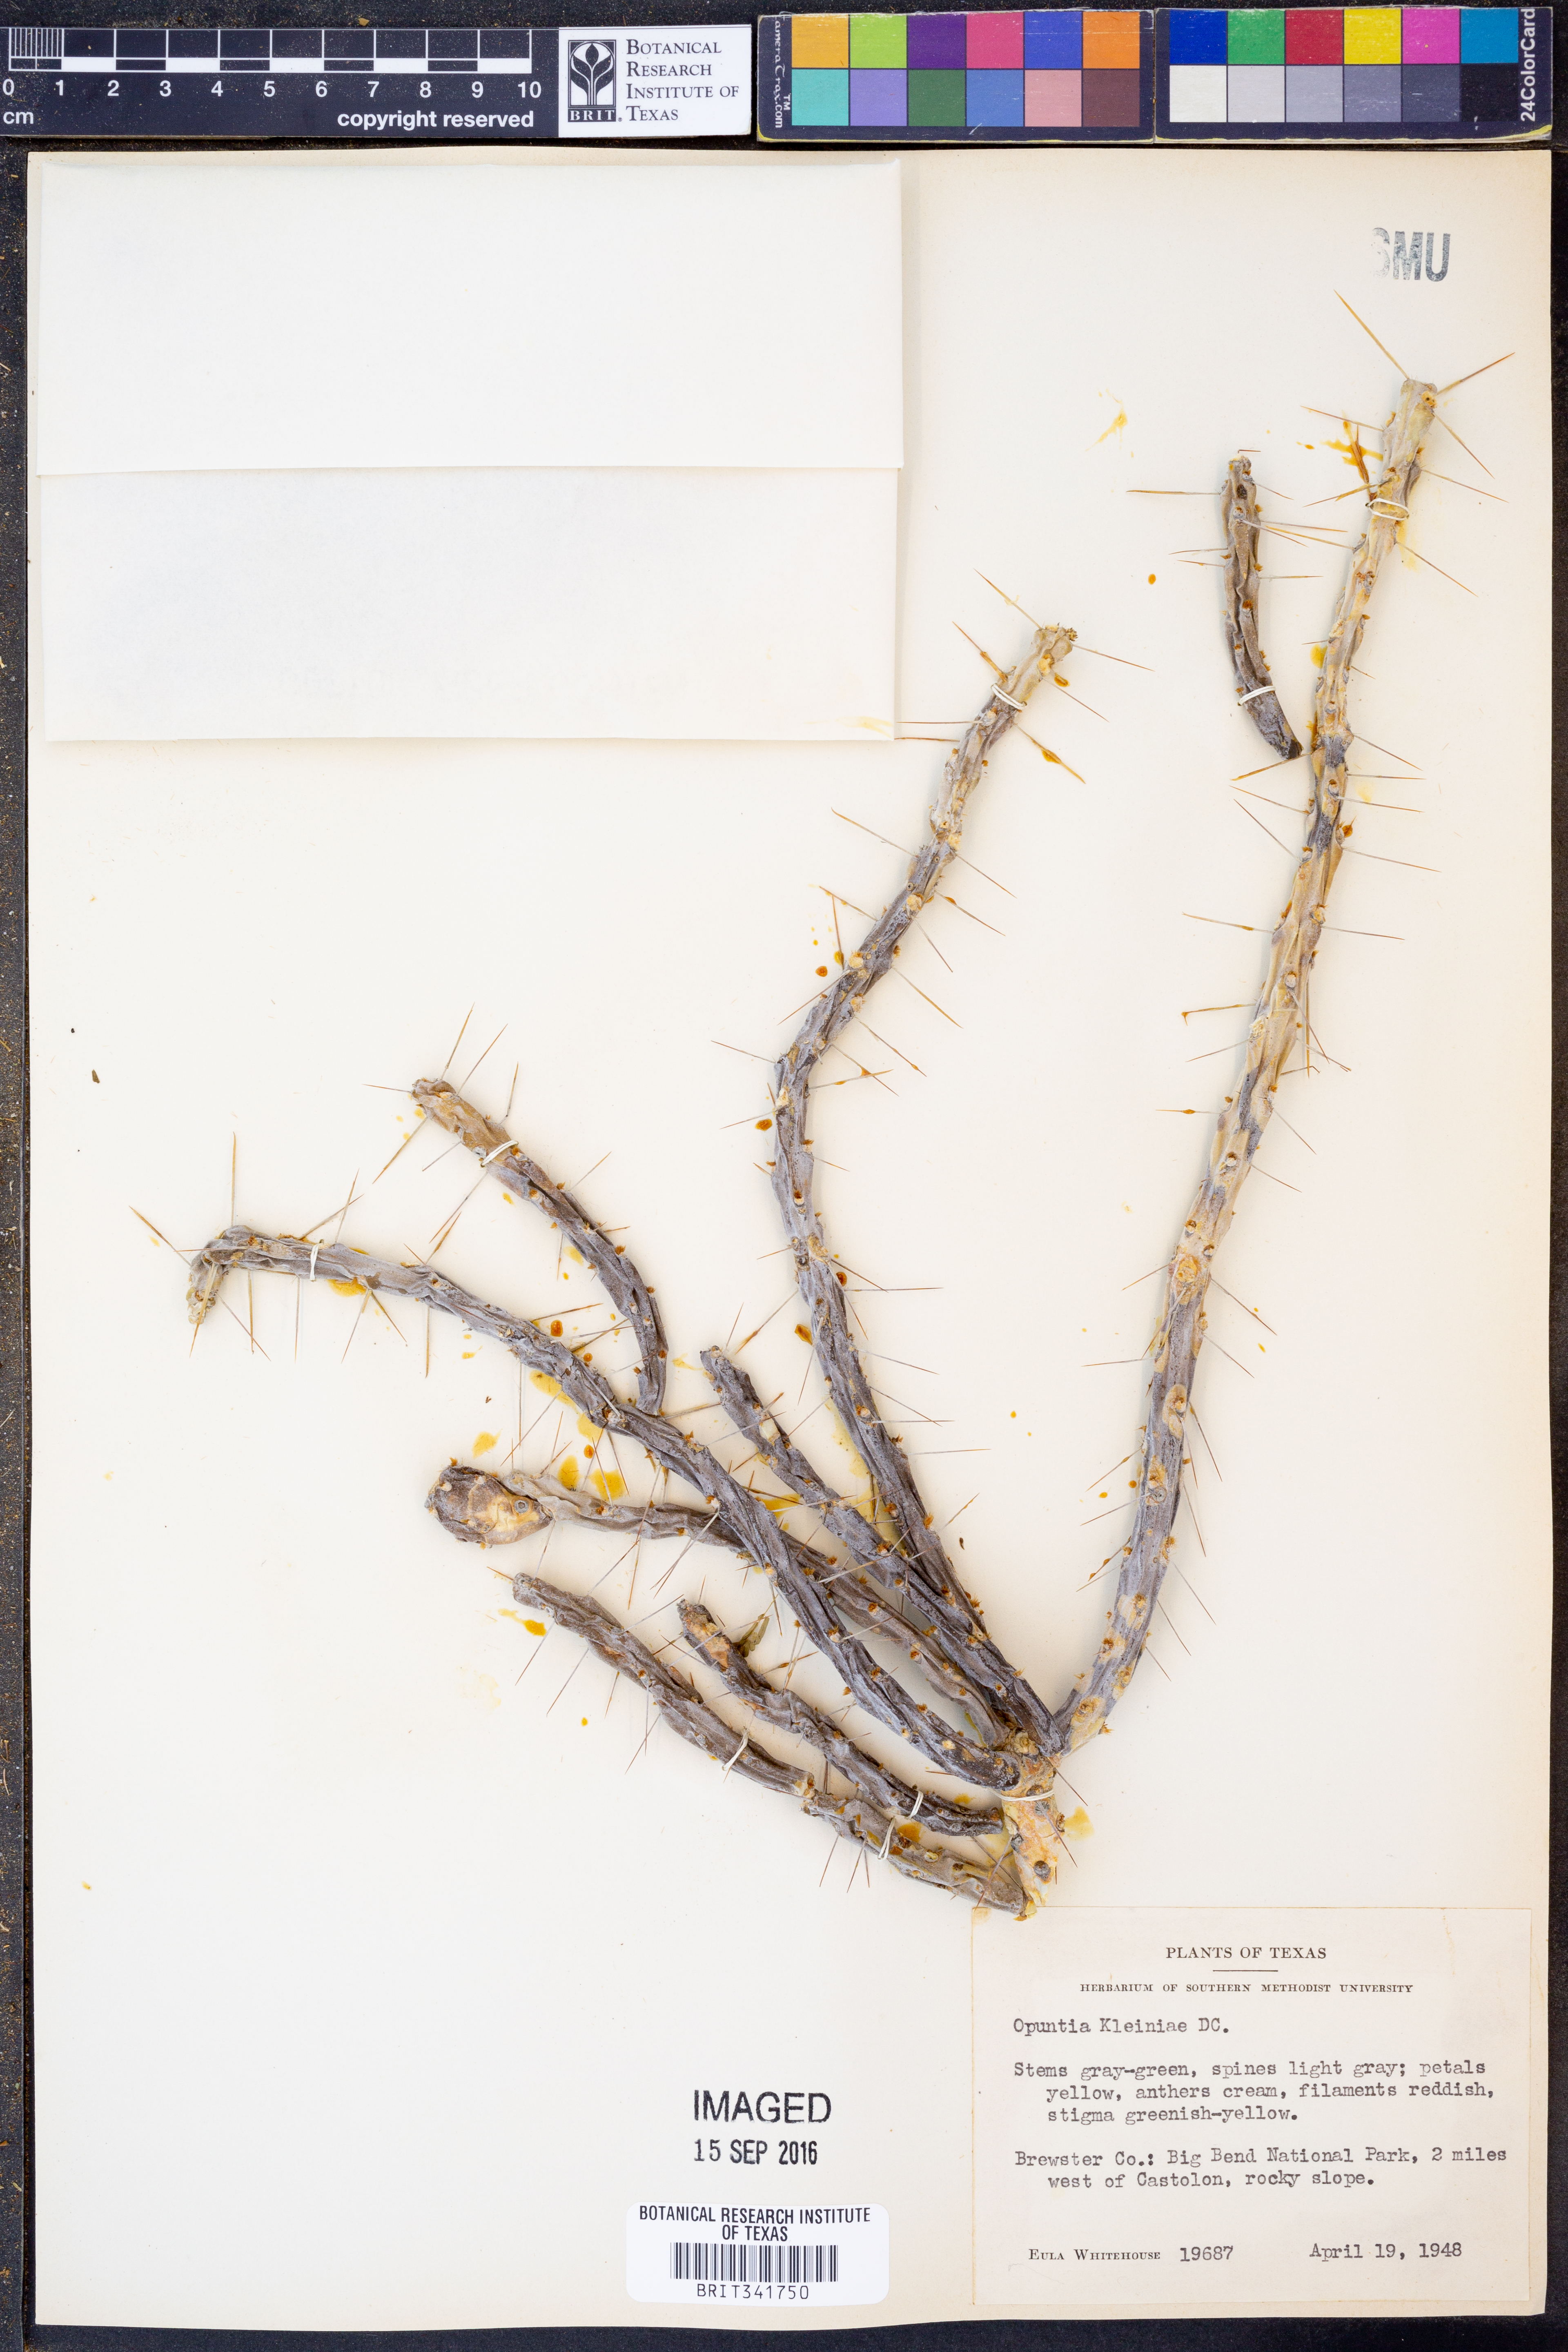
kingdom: Plantae
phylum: Tracheophyta
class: Magnoliopsida
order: Caryophyllales
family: Cactaceae
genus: Cylindropuntia
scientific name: Cylindropuntia kleiniae
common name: Klein's cholla
